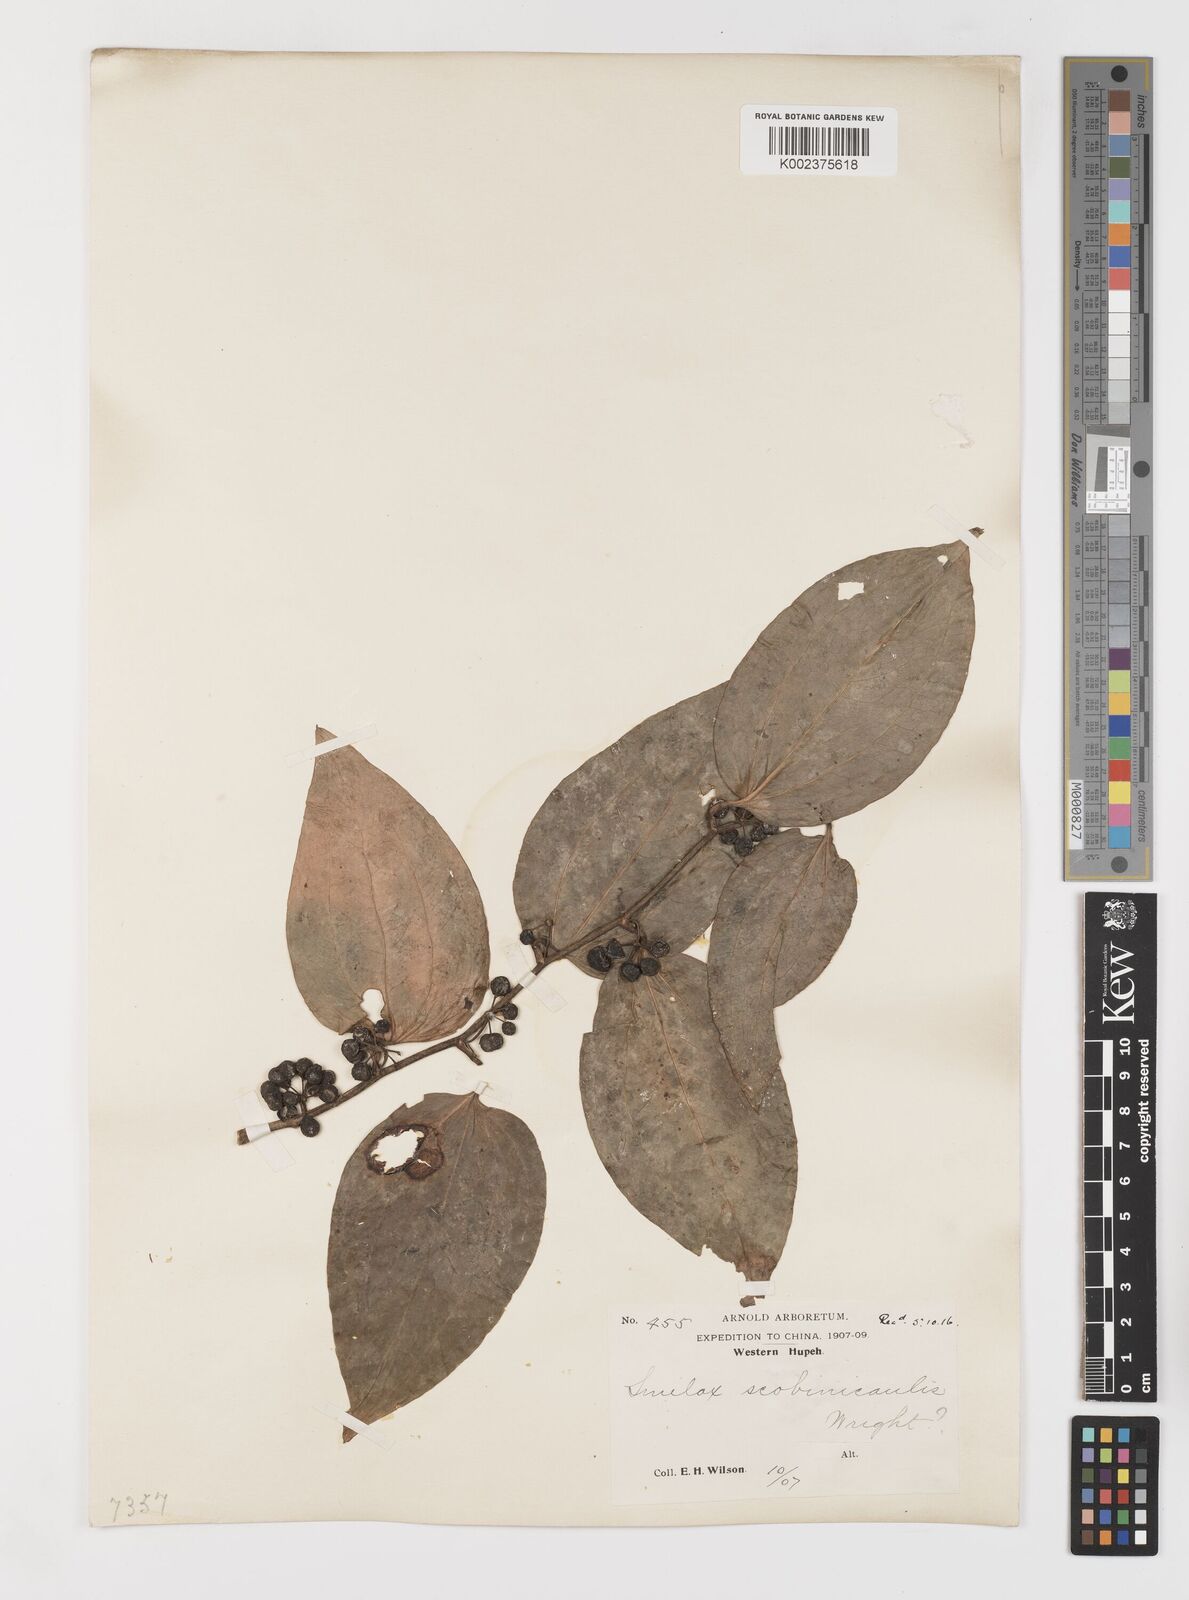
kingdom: Plantae
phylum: Tracheophyta
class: Liliopsida
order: Liliales
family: Smilacaceae
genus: Smilax
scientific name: Smilax scobinicaulis
